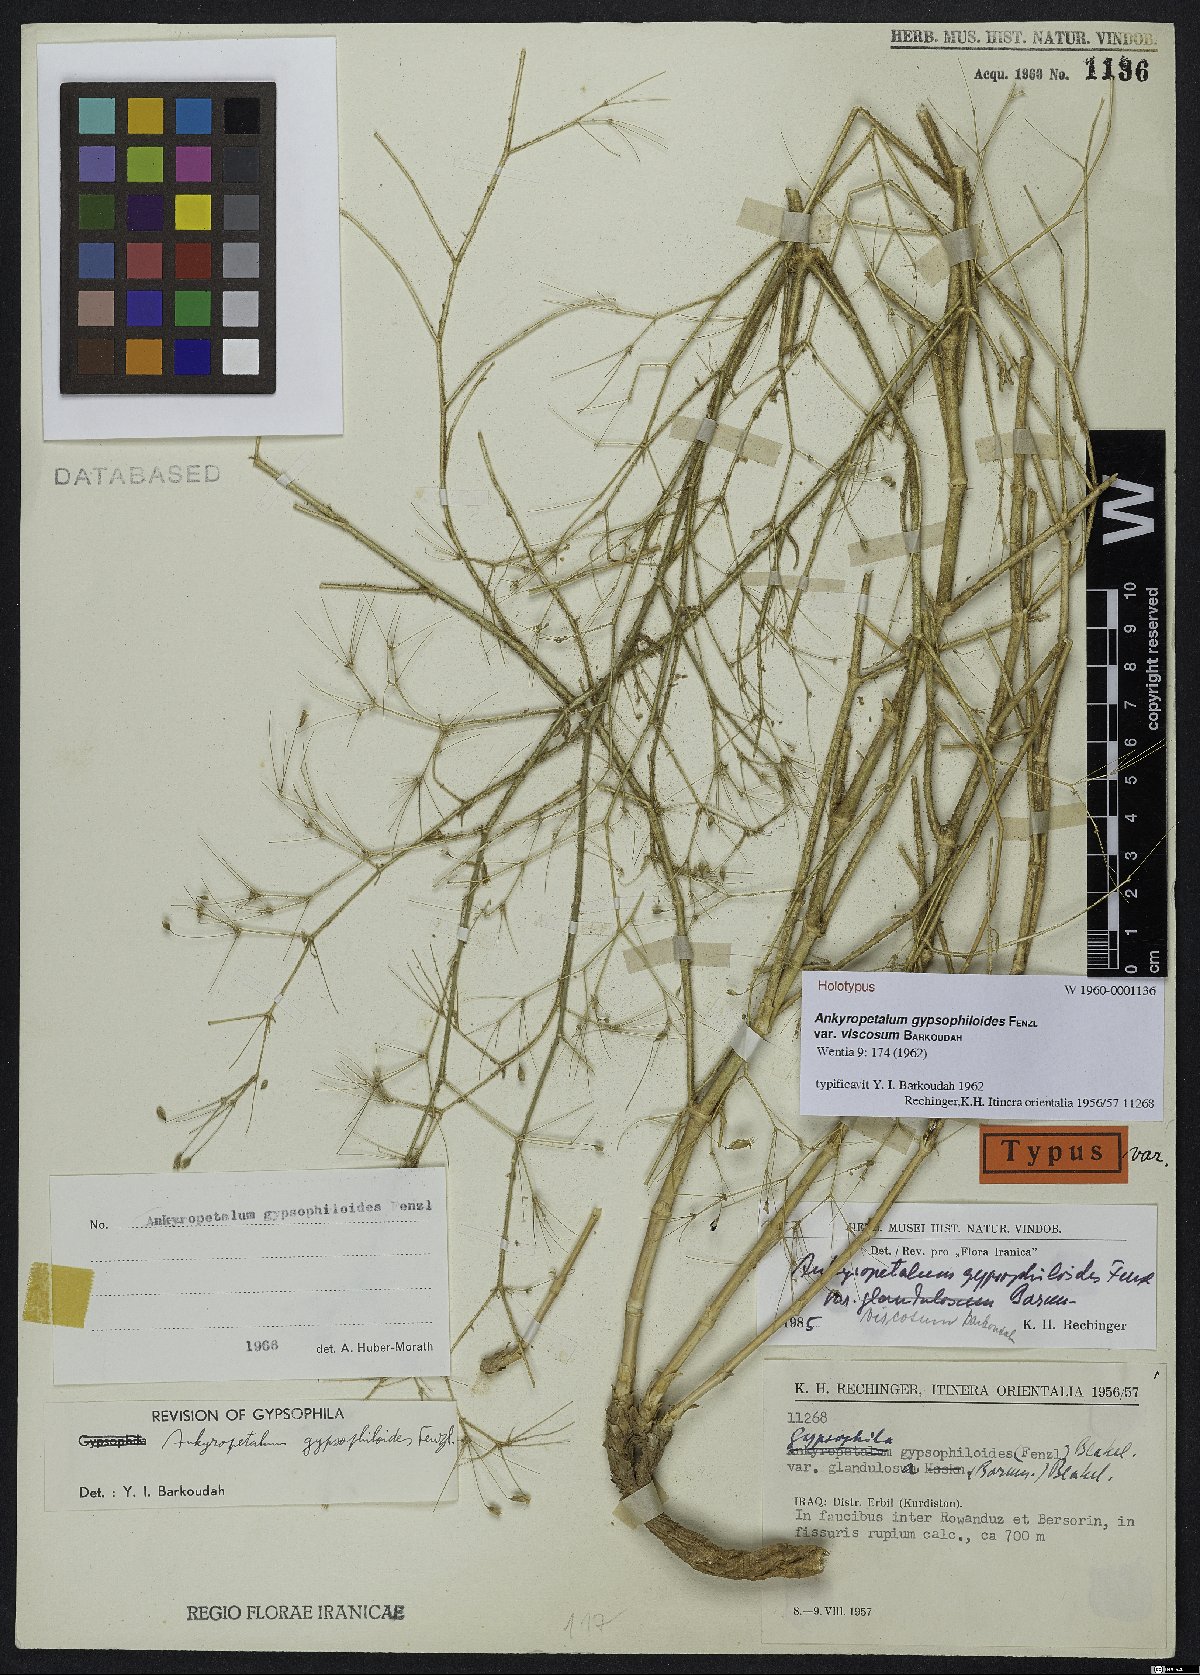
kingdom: Plantae
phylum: Tracheophyta
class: Magnoliopsida
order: Caryophyllales
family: Caryophyllaceae
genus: Mesostemma
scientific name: Mesostemma gypsophiloides
